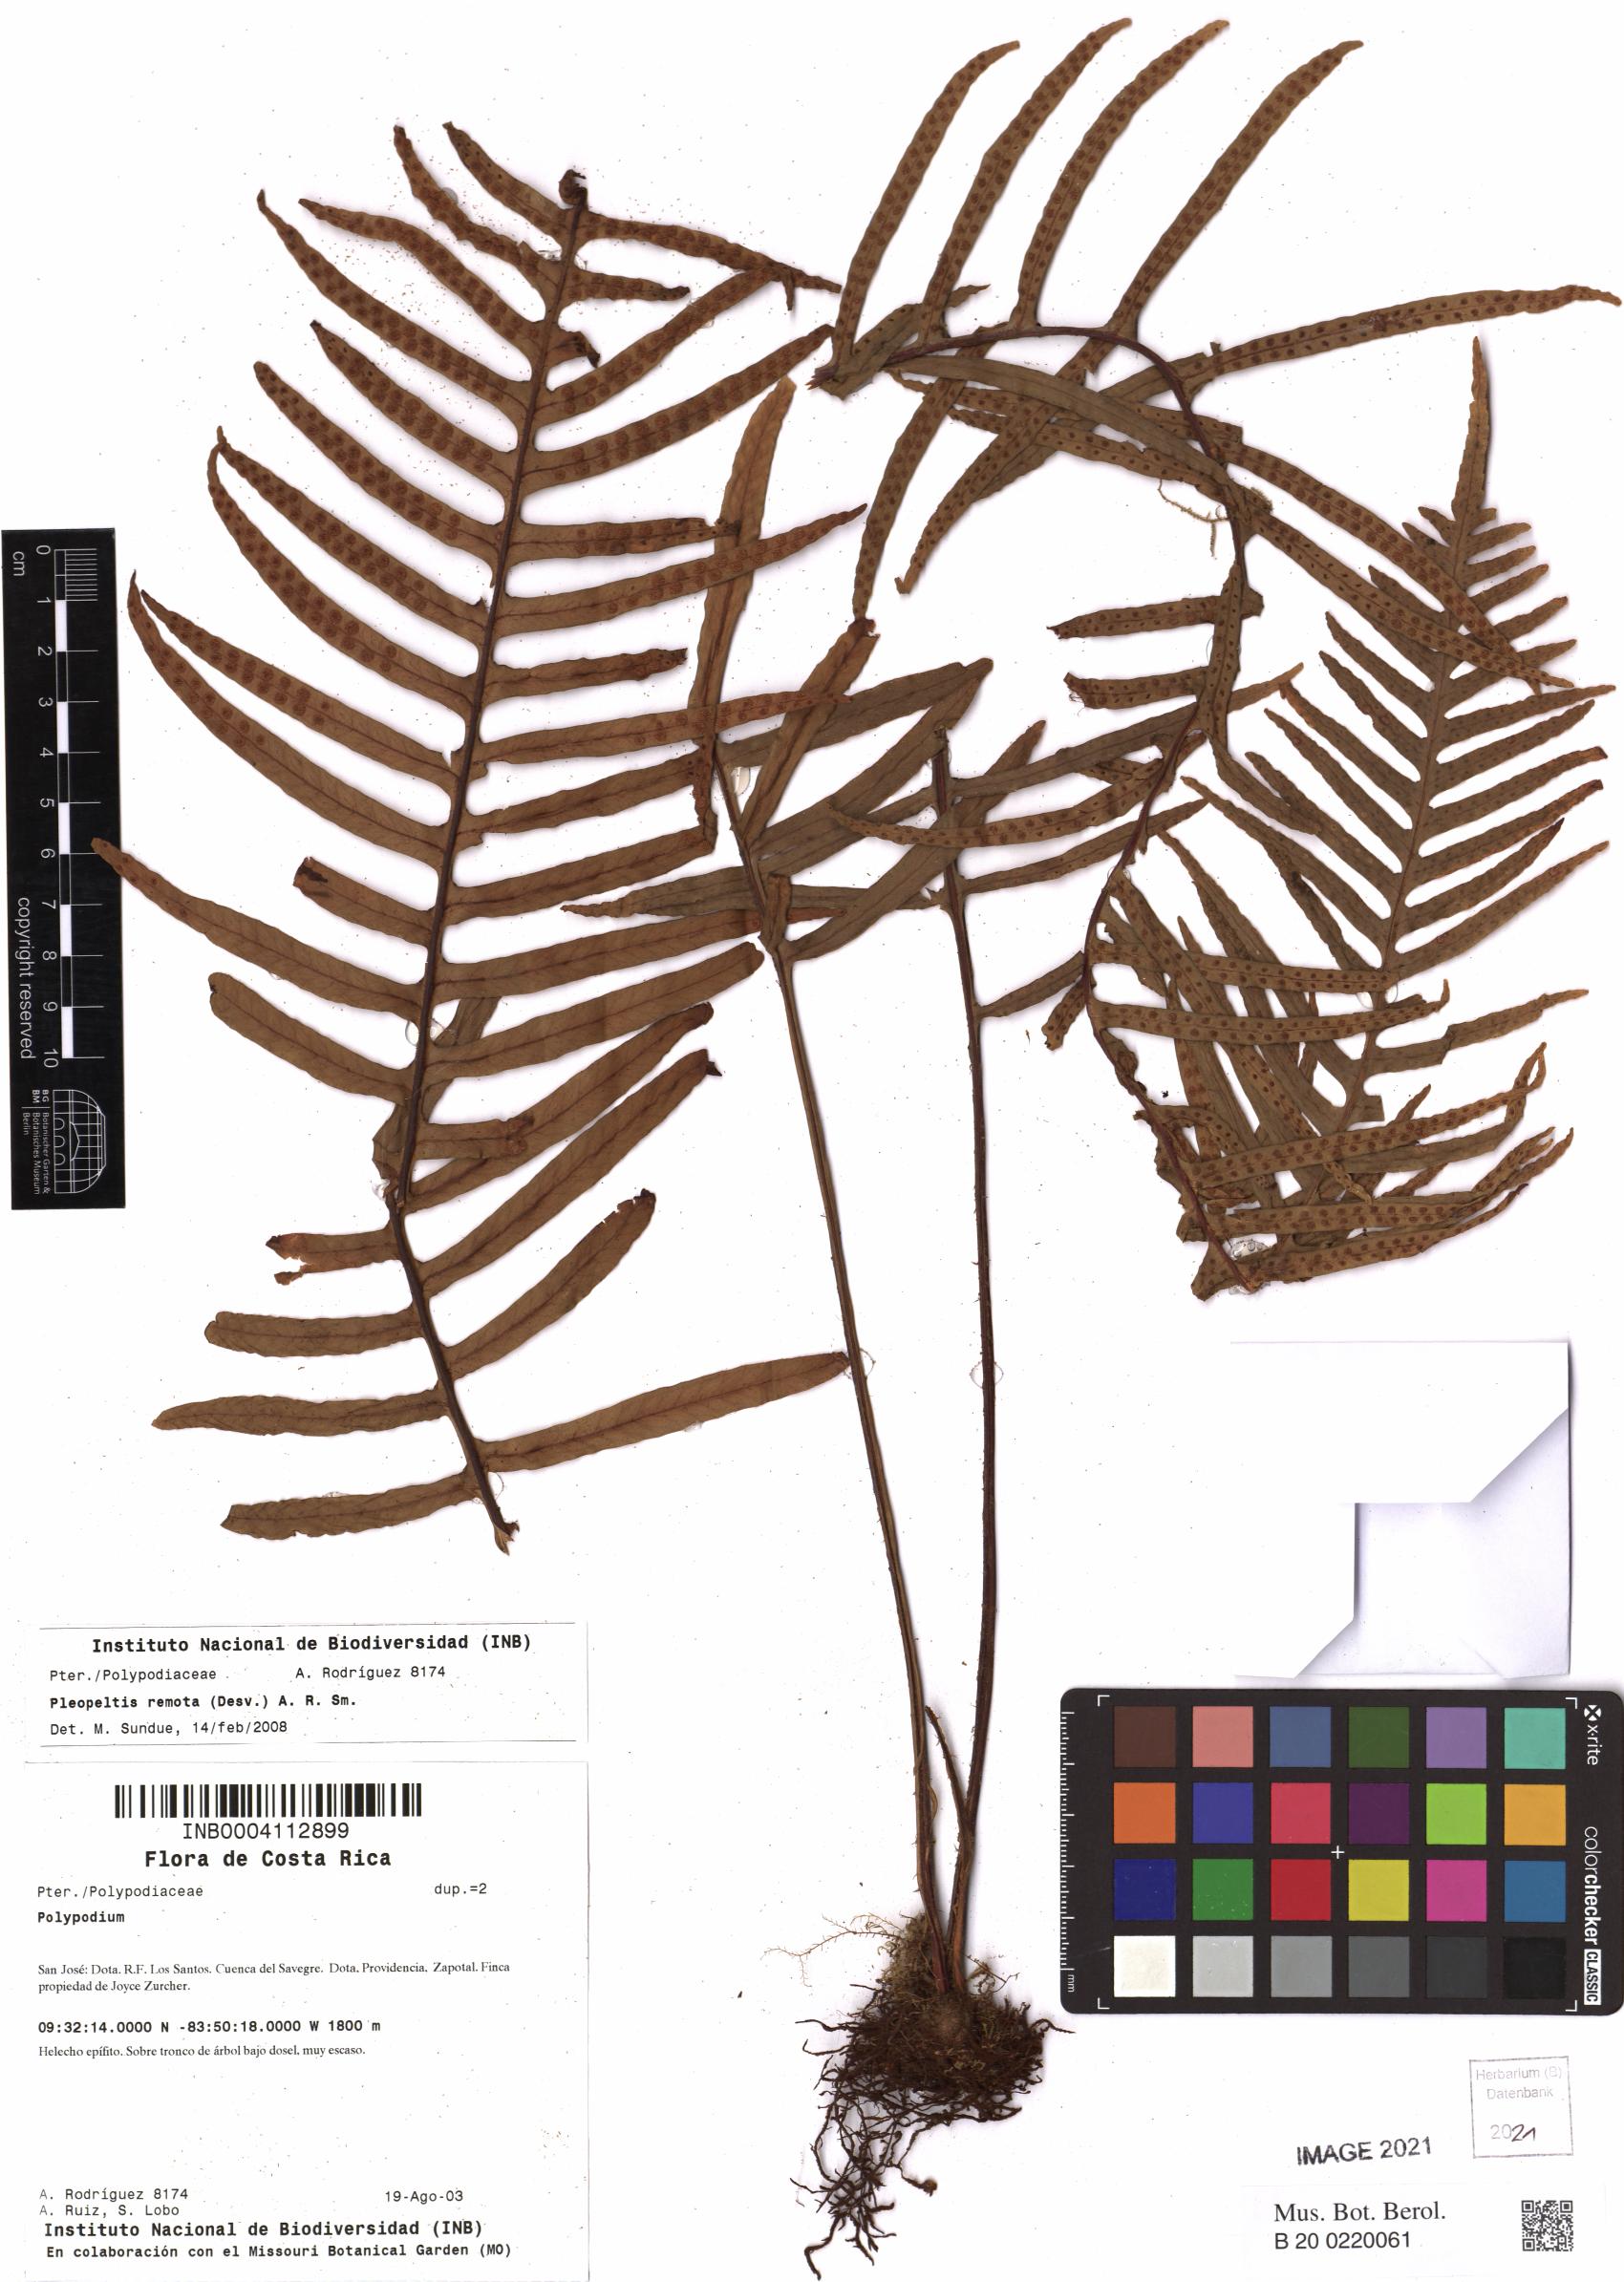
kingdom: Plantae
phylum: Tracheophyta
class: Polypodiopsida
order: Polypodiales
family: Polypodiaceae
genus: Pleopeltis
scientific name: Pleopeltis remota
